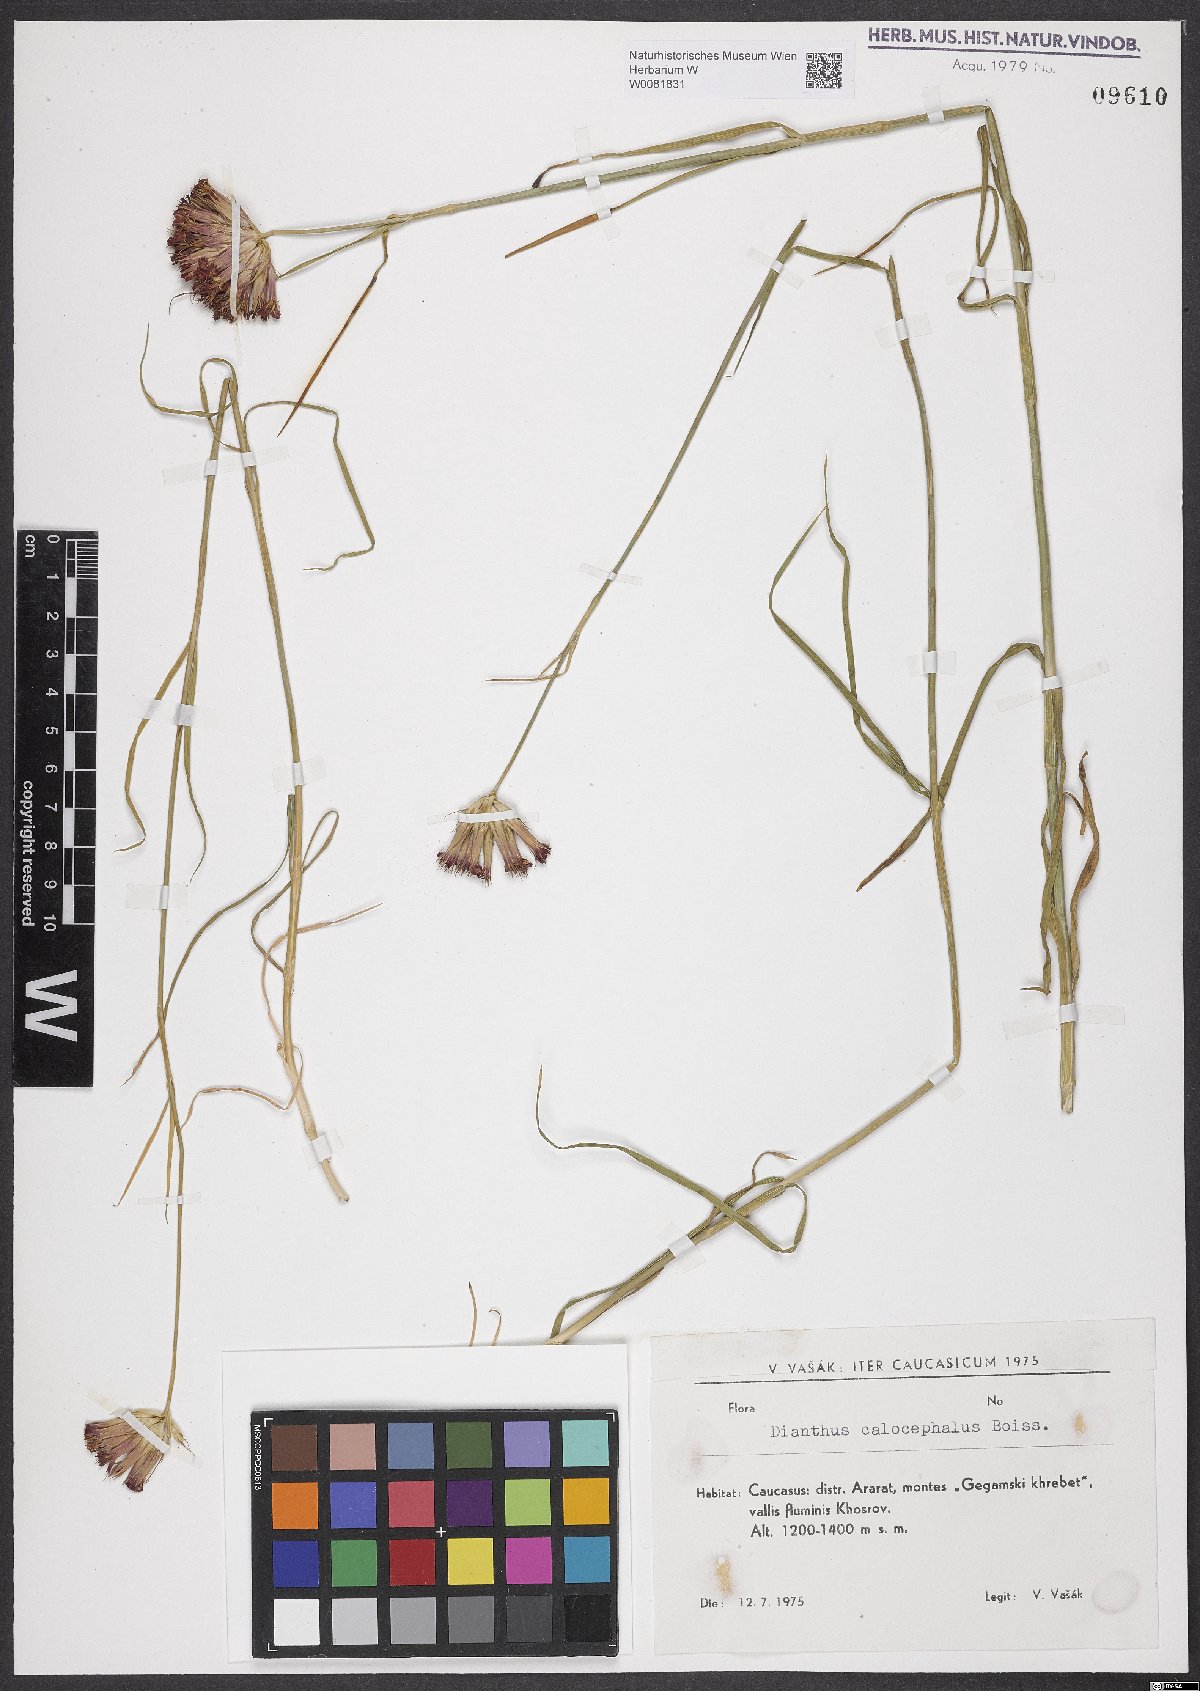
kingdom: Plantae
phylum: Tracheophyta
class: Magnoliopsida
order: Caryophyllales
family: Caryophyllaceae
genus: Dianthus
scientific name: Dianthus cruentus
